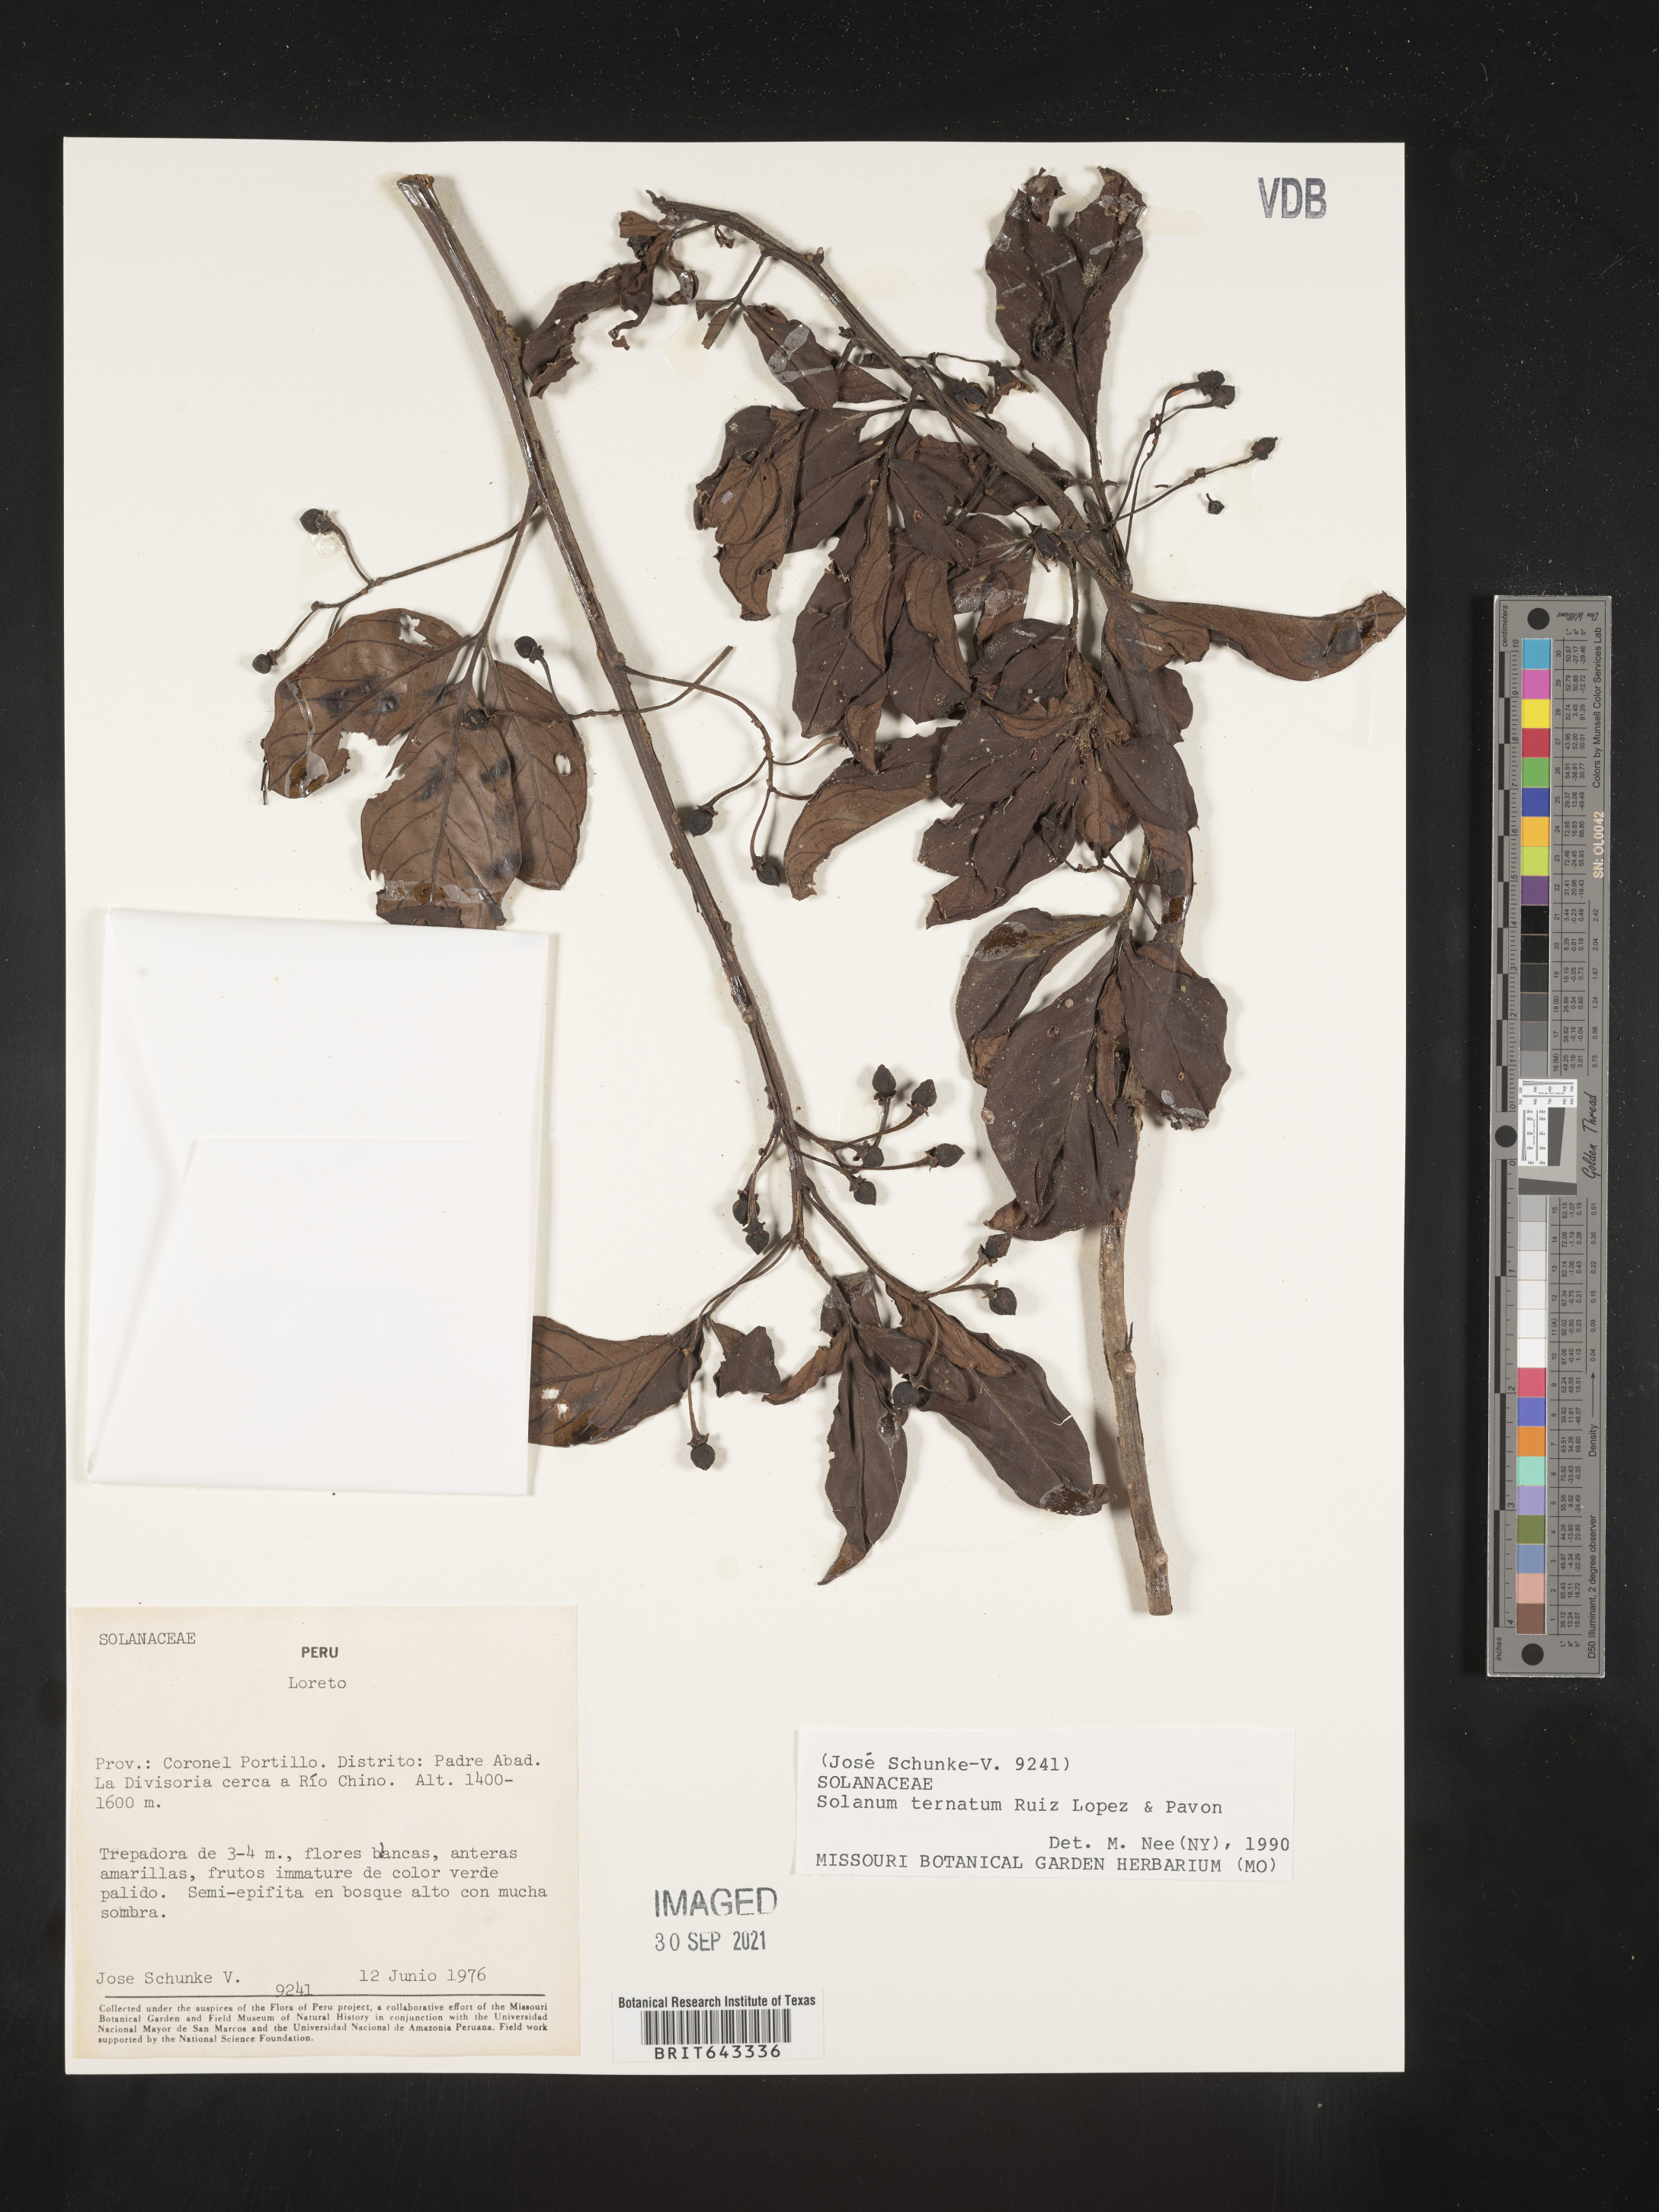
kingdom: Plantae
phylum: Tracheophyta
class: Magnoliopsida
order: Solanales
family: Solanaceae
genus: Solanum
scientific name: Solanum
